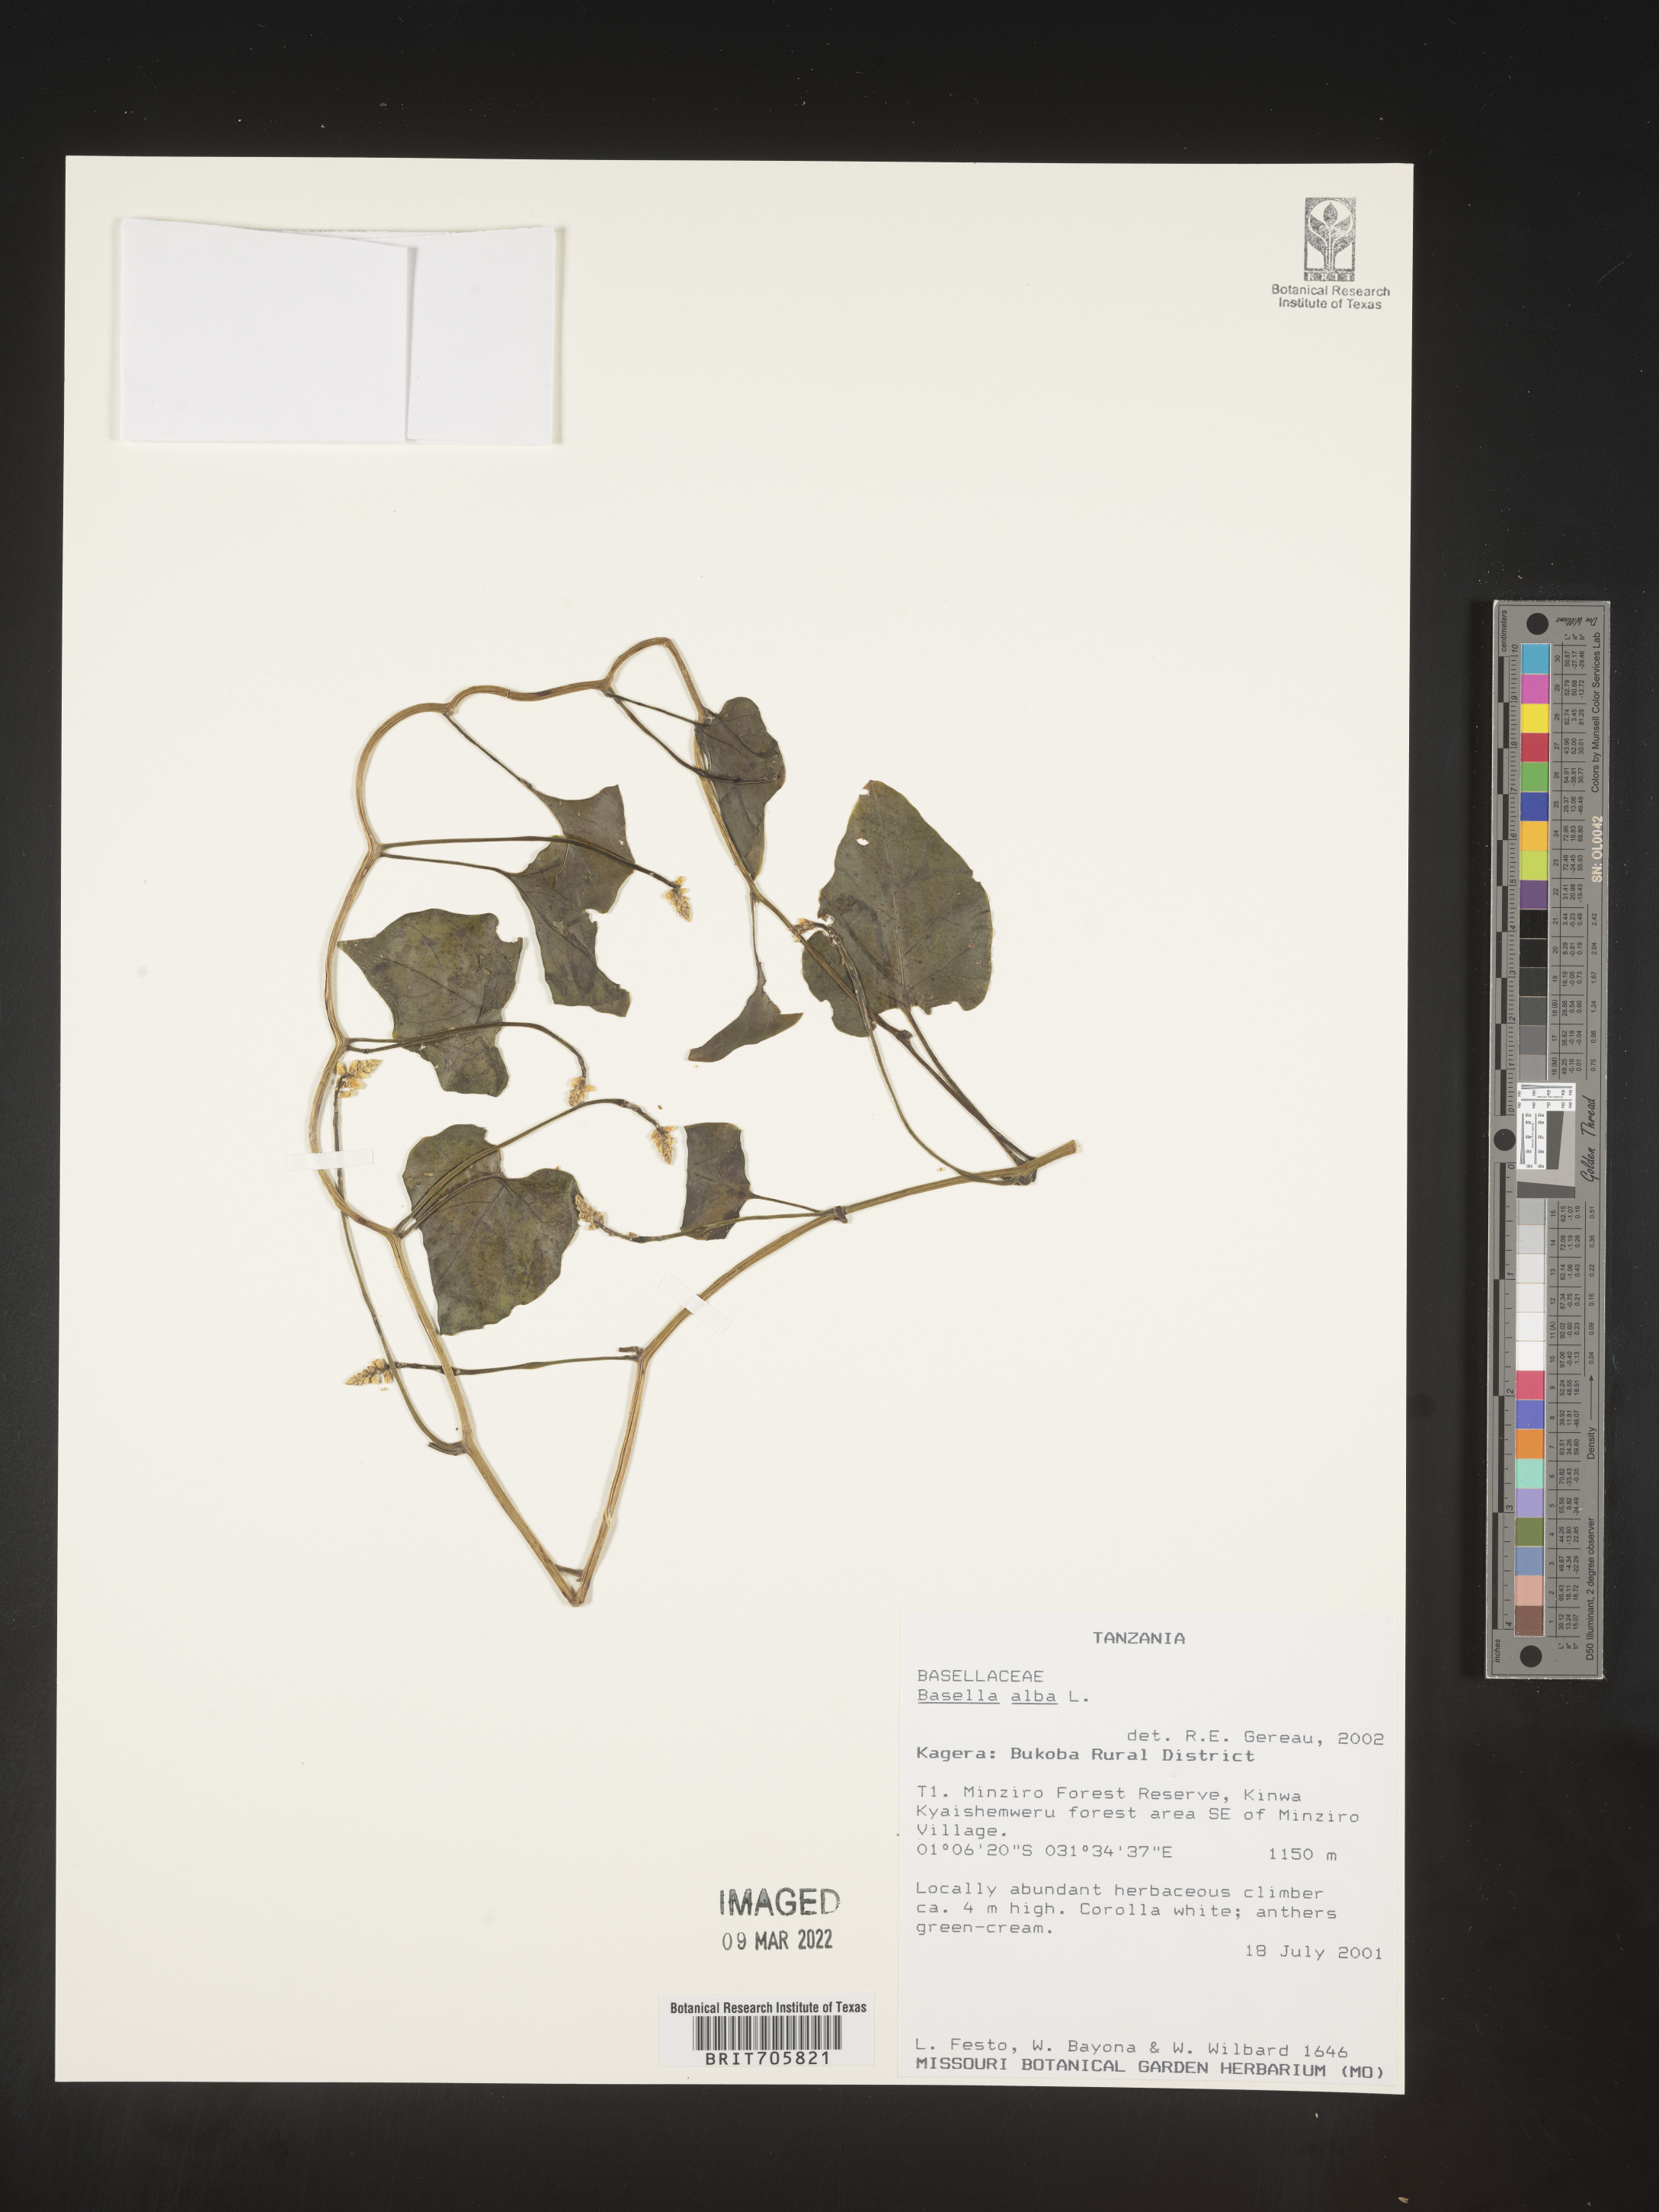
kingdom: Plantae
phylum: Tracheophyta
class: Magnoliopsida
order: Caryophyllales
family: Basellaceae
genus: Basella
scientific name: Basella
